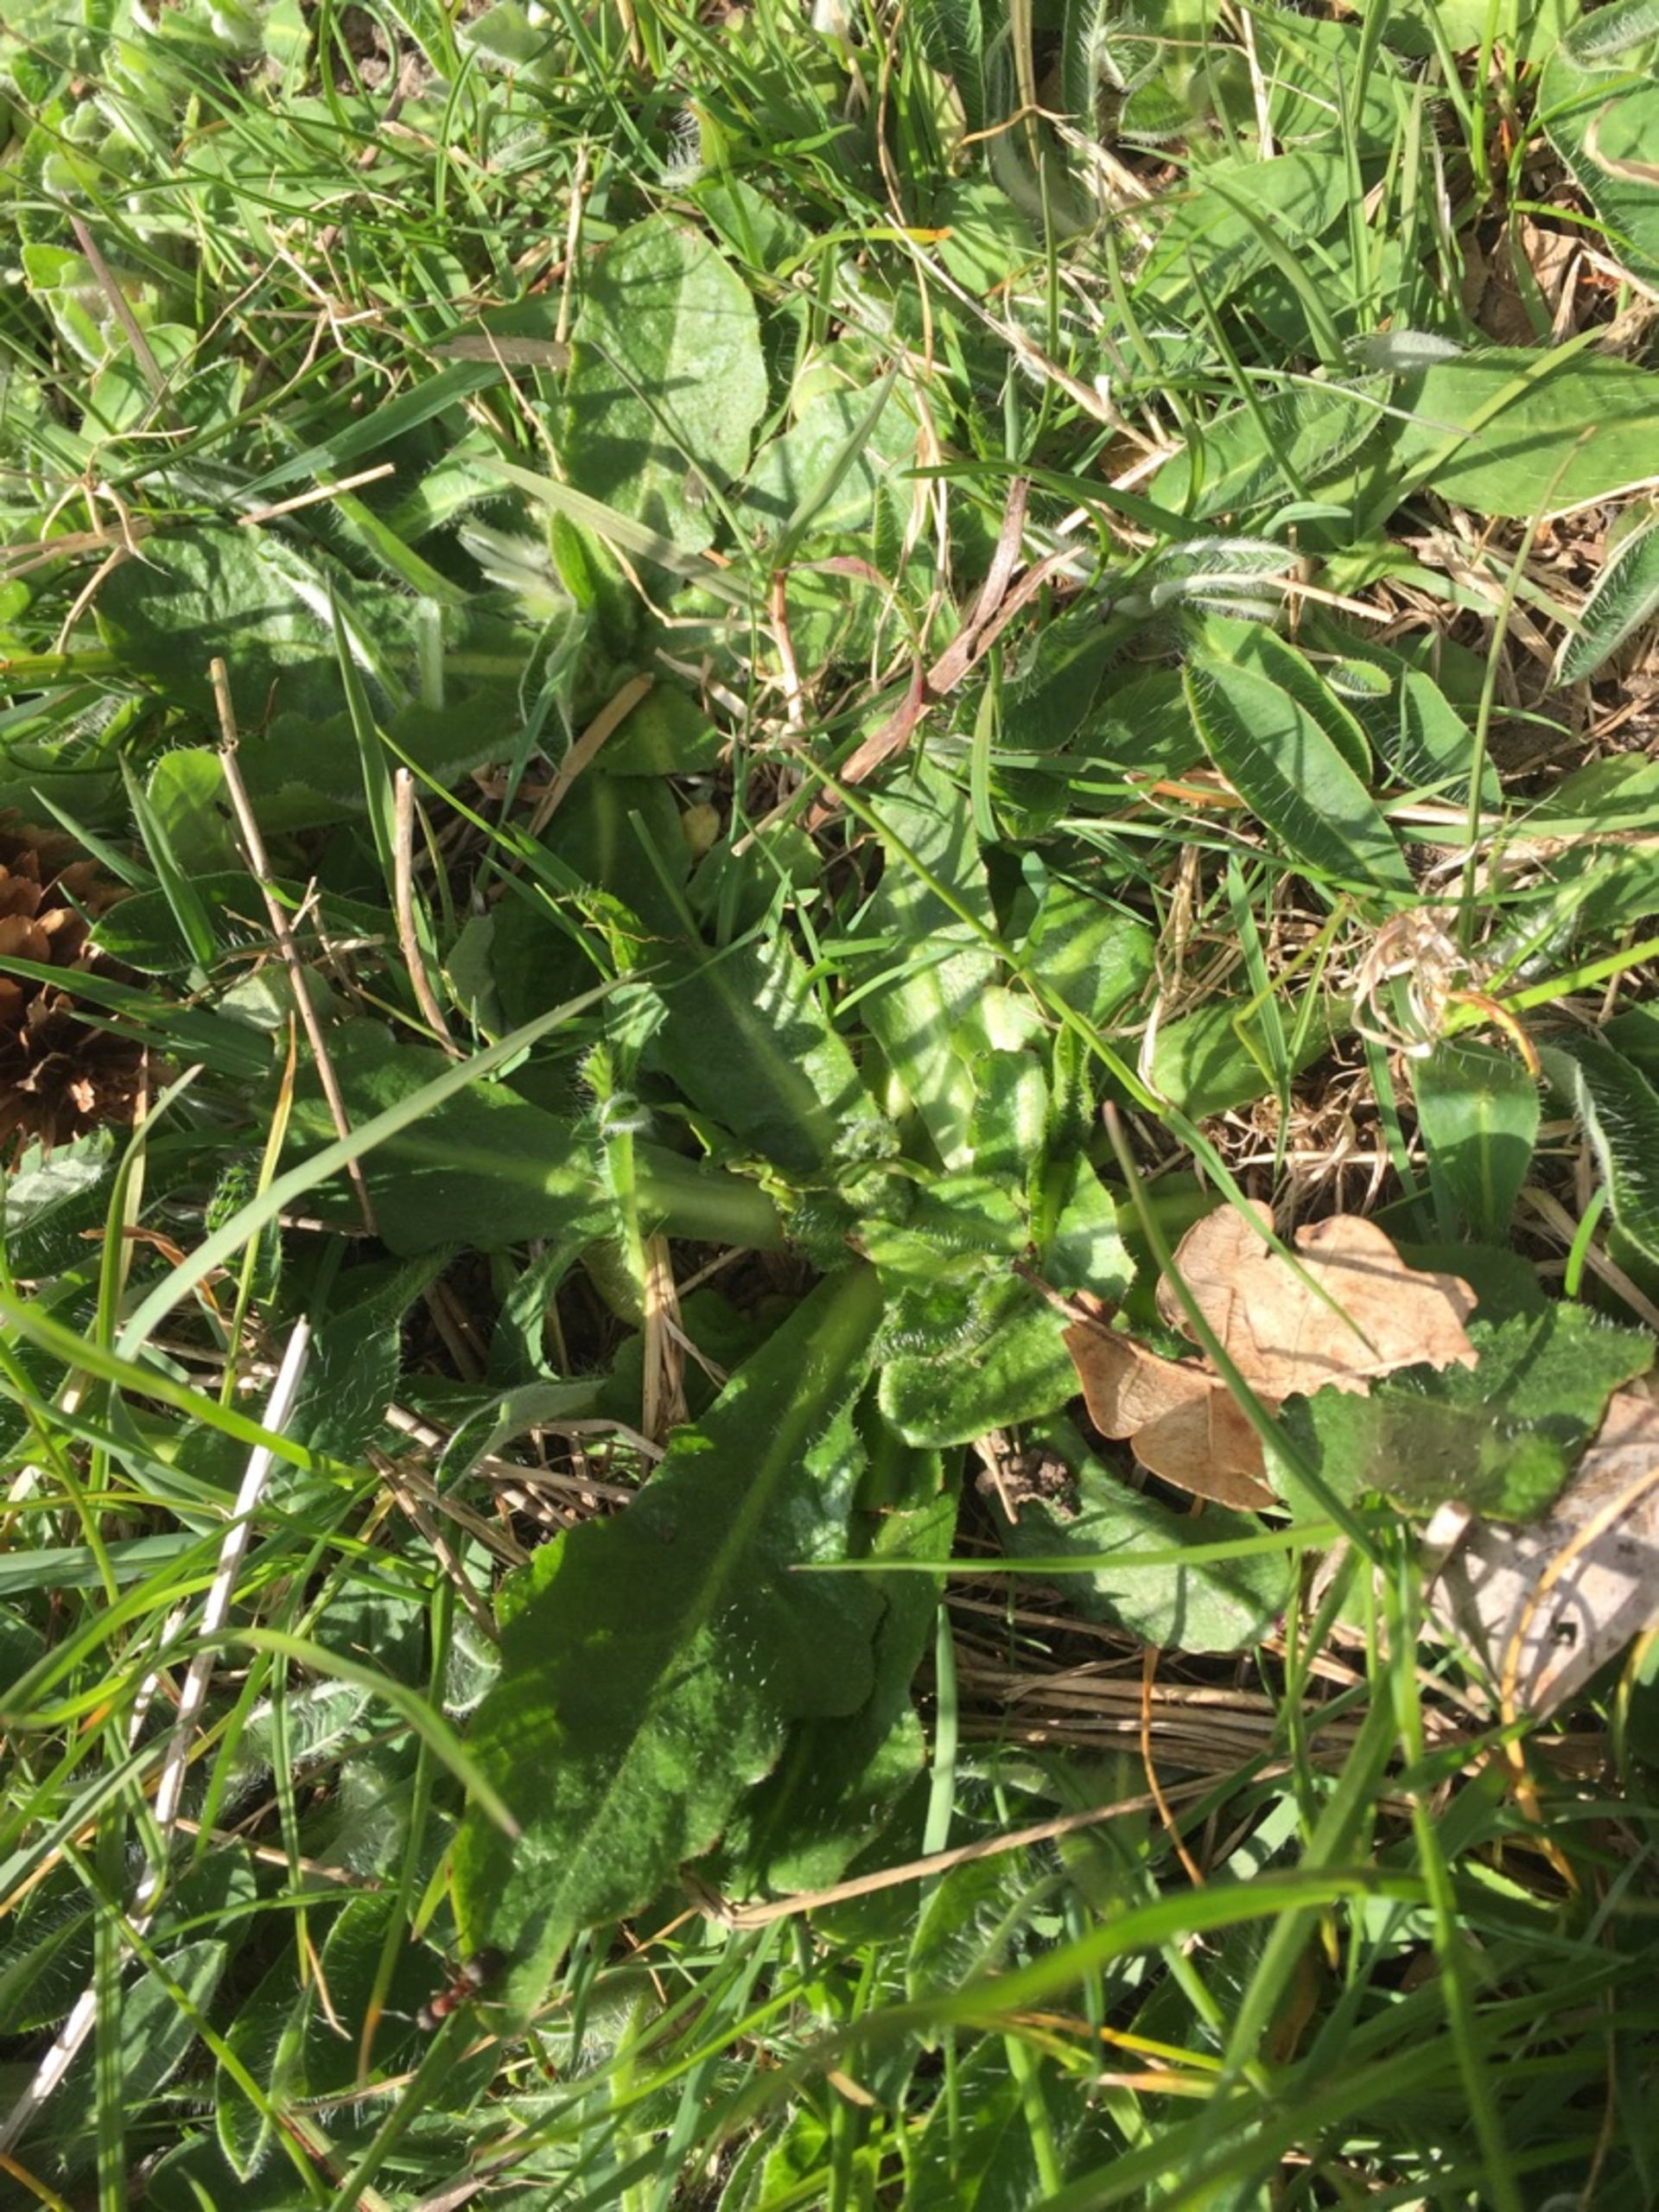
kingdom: Plantae
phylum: Tracheophyta
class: Magnoliopsida
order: Asterales
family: Asteraceae
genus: Hypochaeris
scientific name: Hypochaeris radicata
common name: Almindelig kongepen
